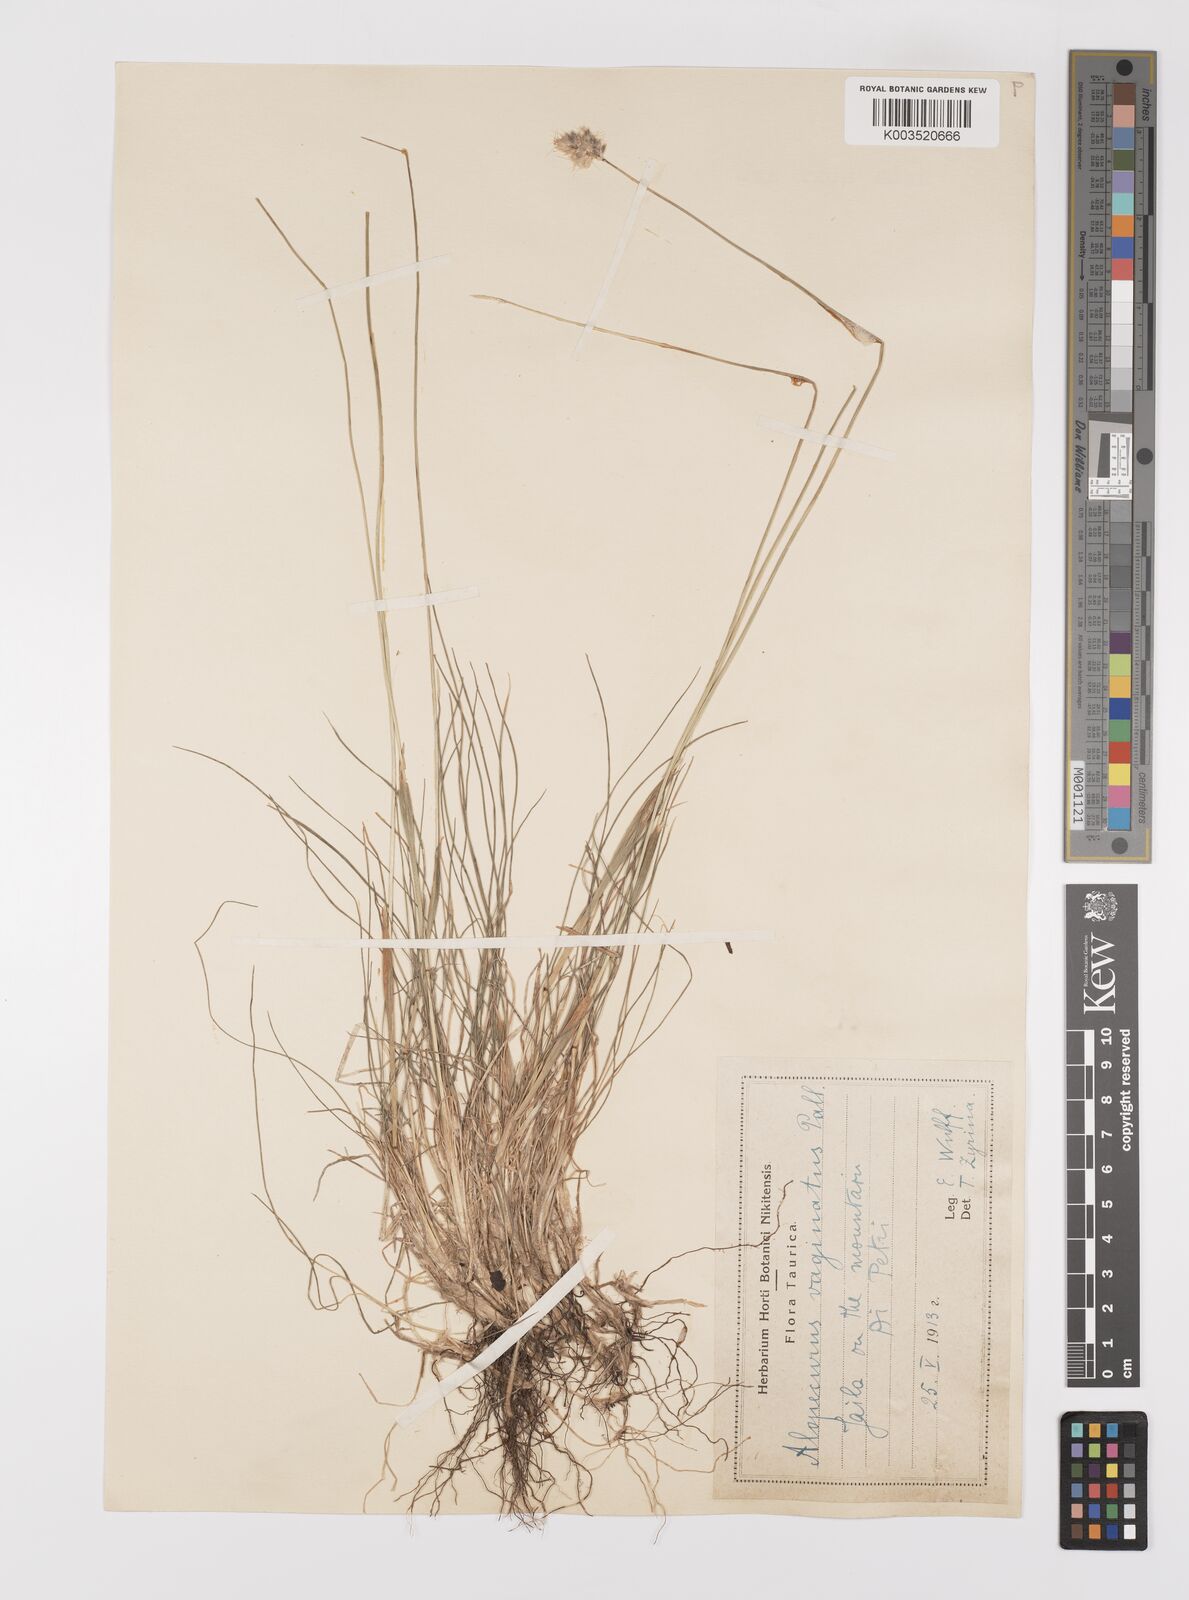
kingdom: Plantae
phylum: Tracheophyta
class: Liliopsida
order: Poales
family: Poaceae
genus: Alopecurus
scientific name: Alopecurus vaginatus
